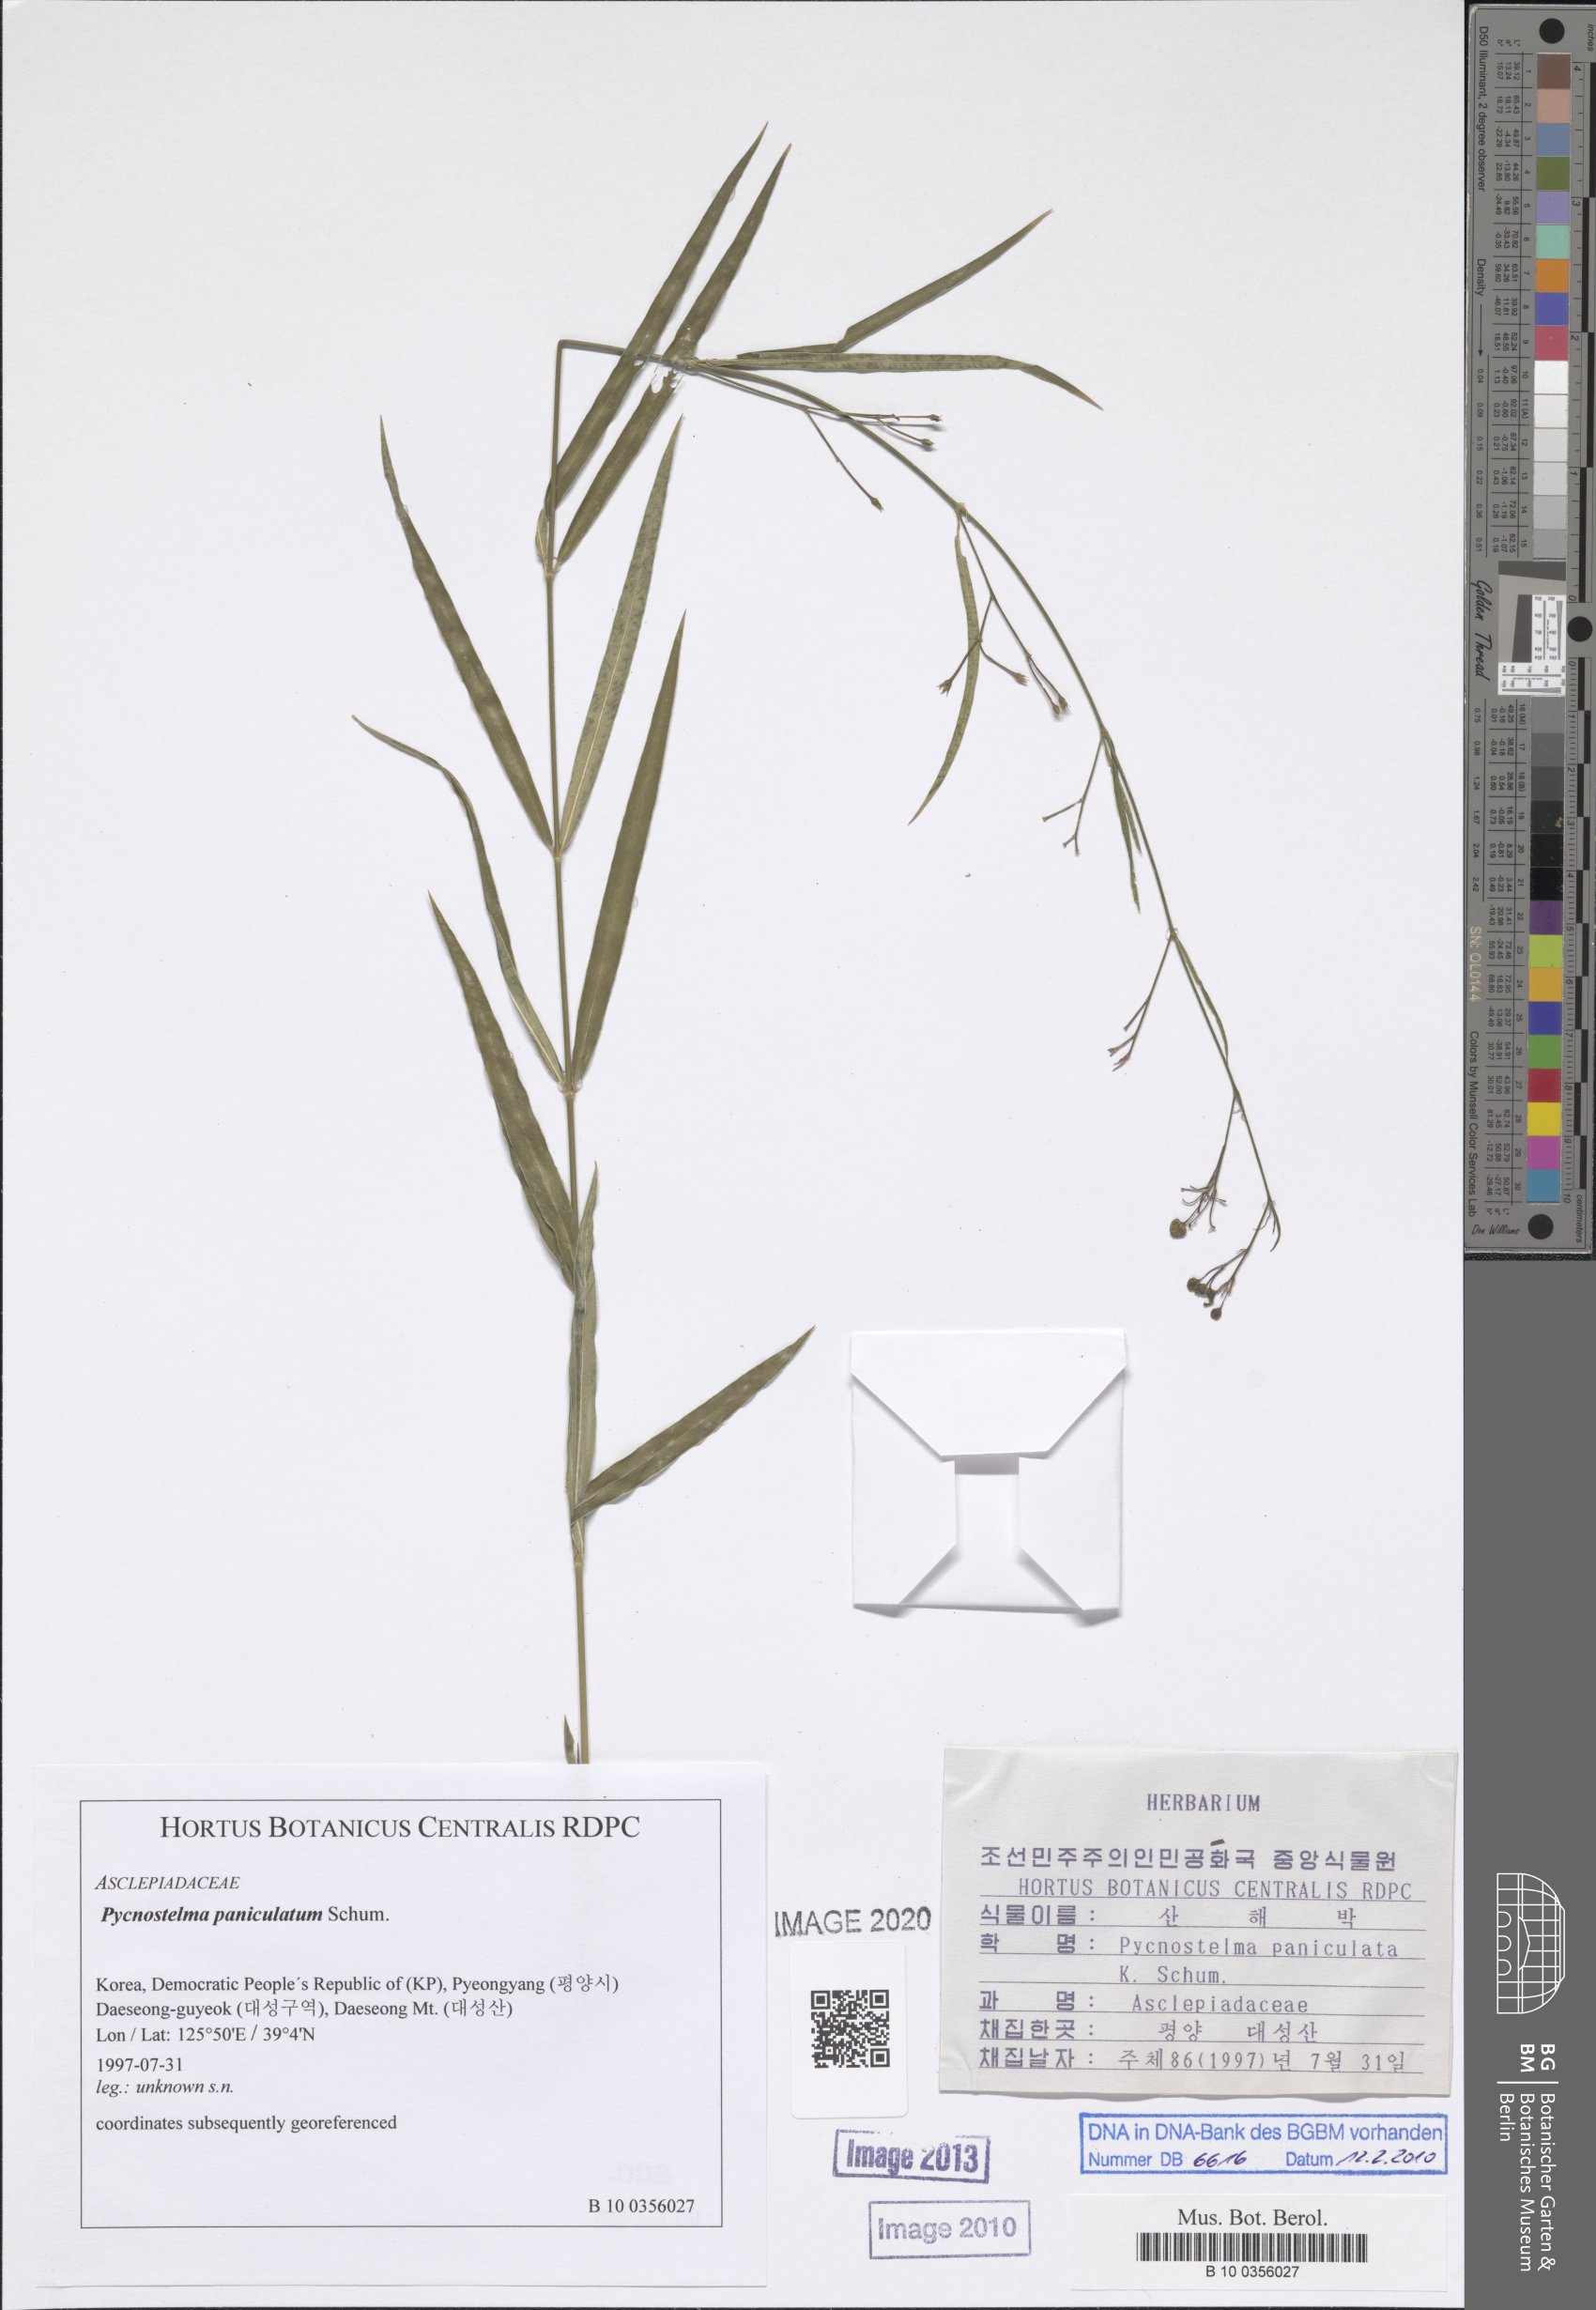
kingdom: Plantae
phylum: Tracheophyta
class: Magnoliopsida
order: Gentianales
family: Apocynaceae
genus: Vincetoxicum
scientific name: Vincetoxicum mukdenense
